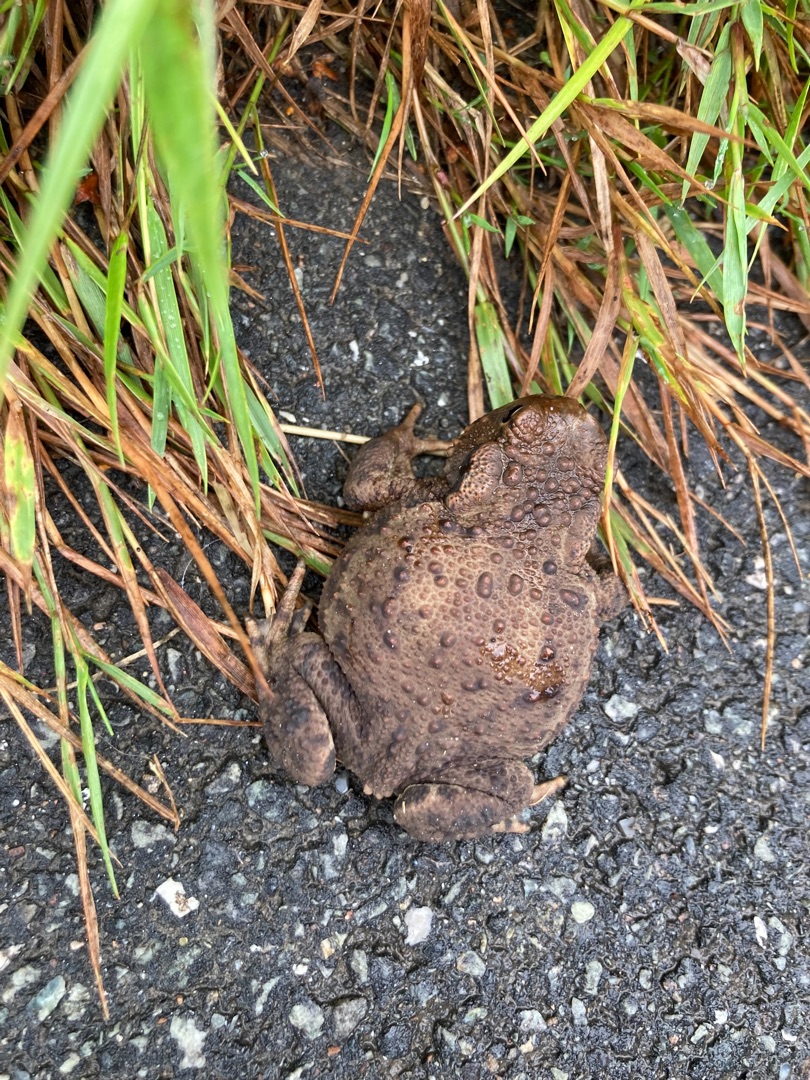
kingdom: Animalia
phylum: Chordata
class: Amphibia
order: Anura
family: Bufonidae
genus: Bufo
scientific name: Bufo bufo
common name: Skrubtudse
